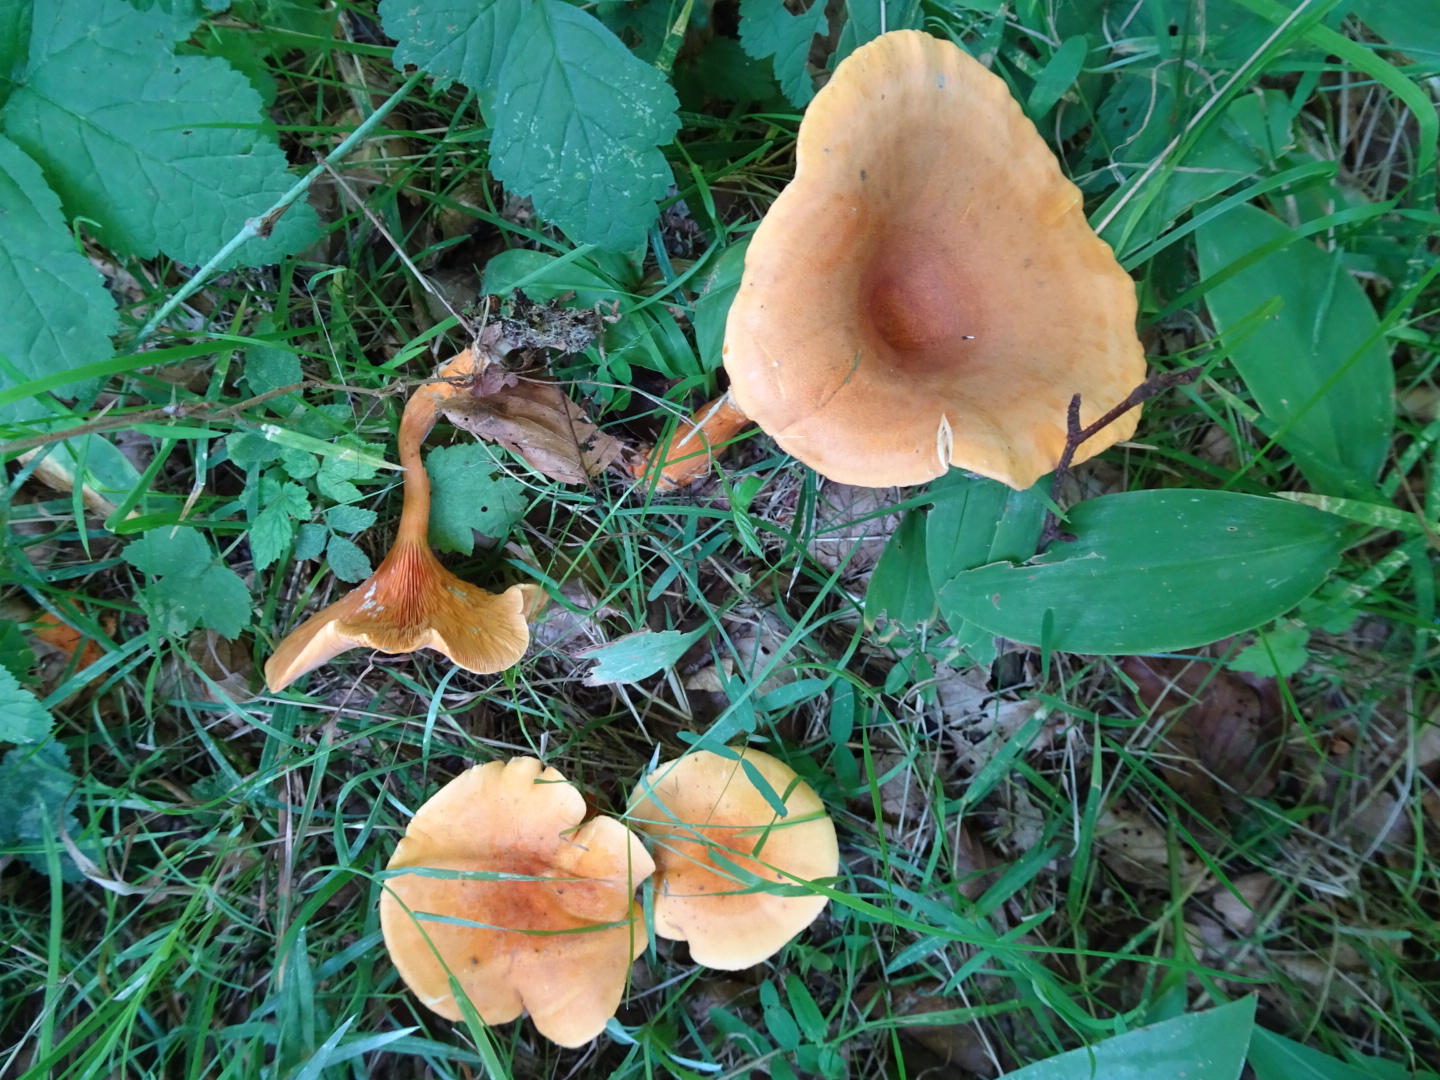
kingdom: Fungi
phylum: Basidiomycota
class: Agaricomycetes
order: Boletales
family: Hygrophoropsidaceae
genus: Hygrophoropsis
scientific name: Hygrophoropsis aurantiaca
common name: almindelig orangekantarel
